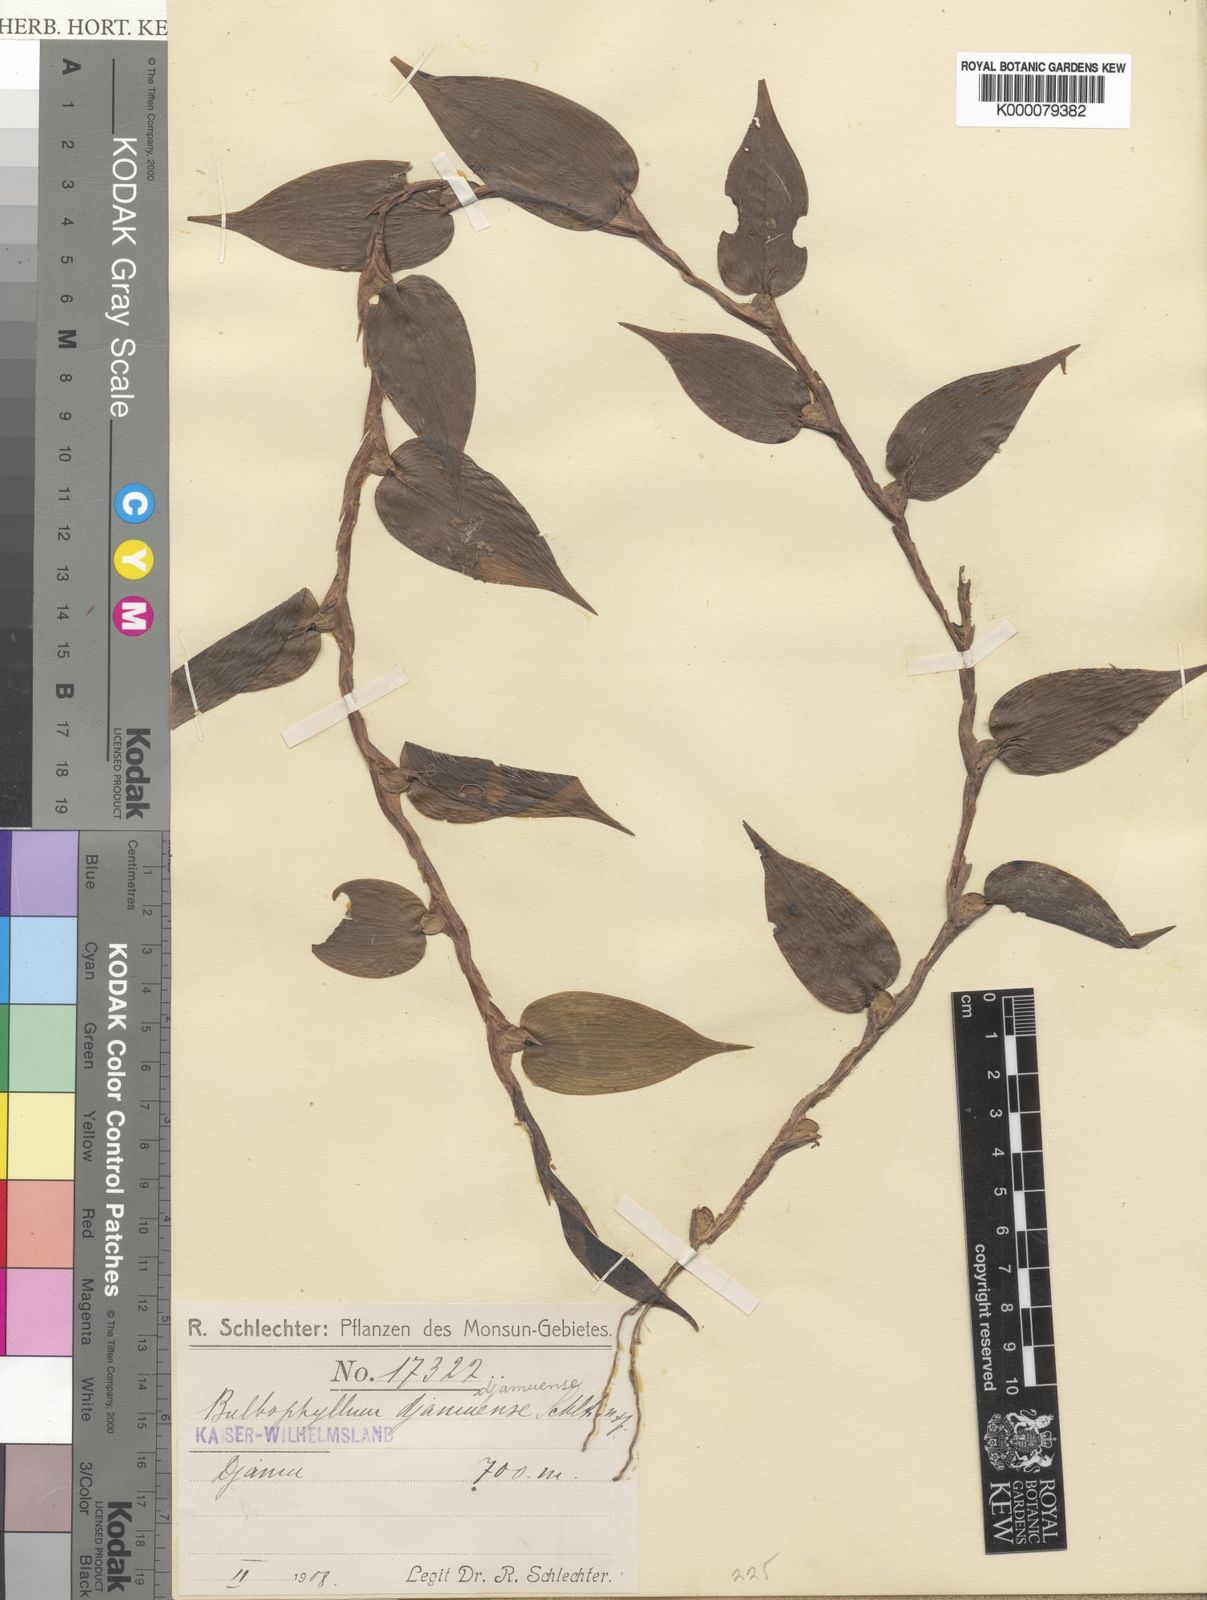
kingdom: Plantae
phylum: Tracheophyta
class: Liliopsida
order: Asparagales
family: Orchidaceae
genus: Bulbophyllum
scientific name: Bulbophyllum djamuense
